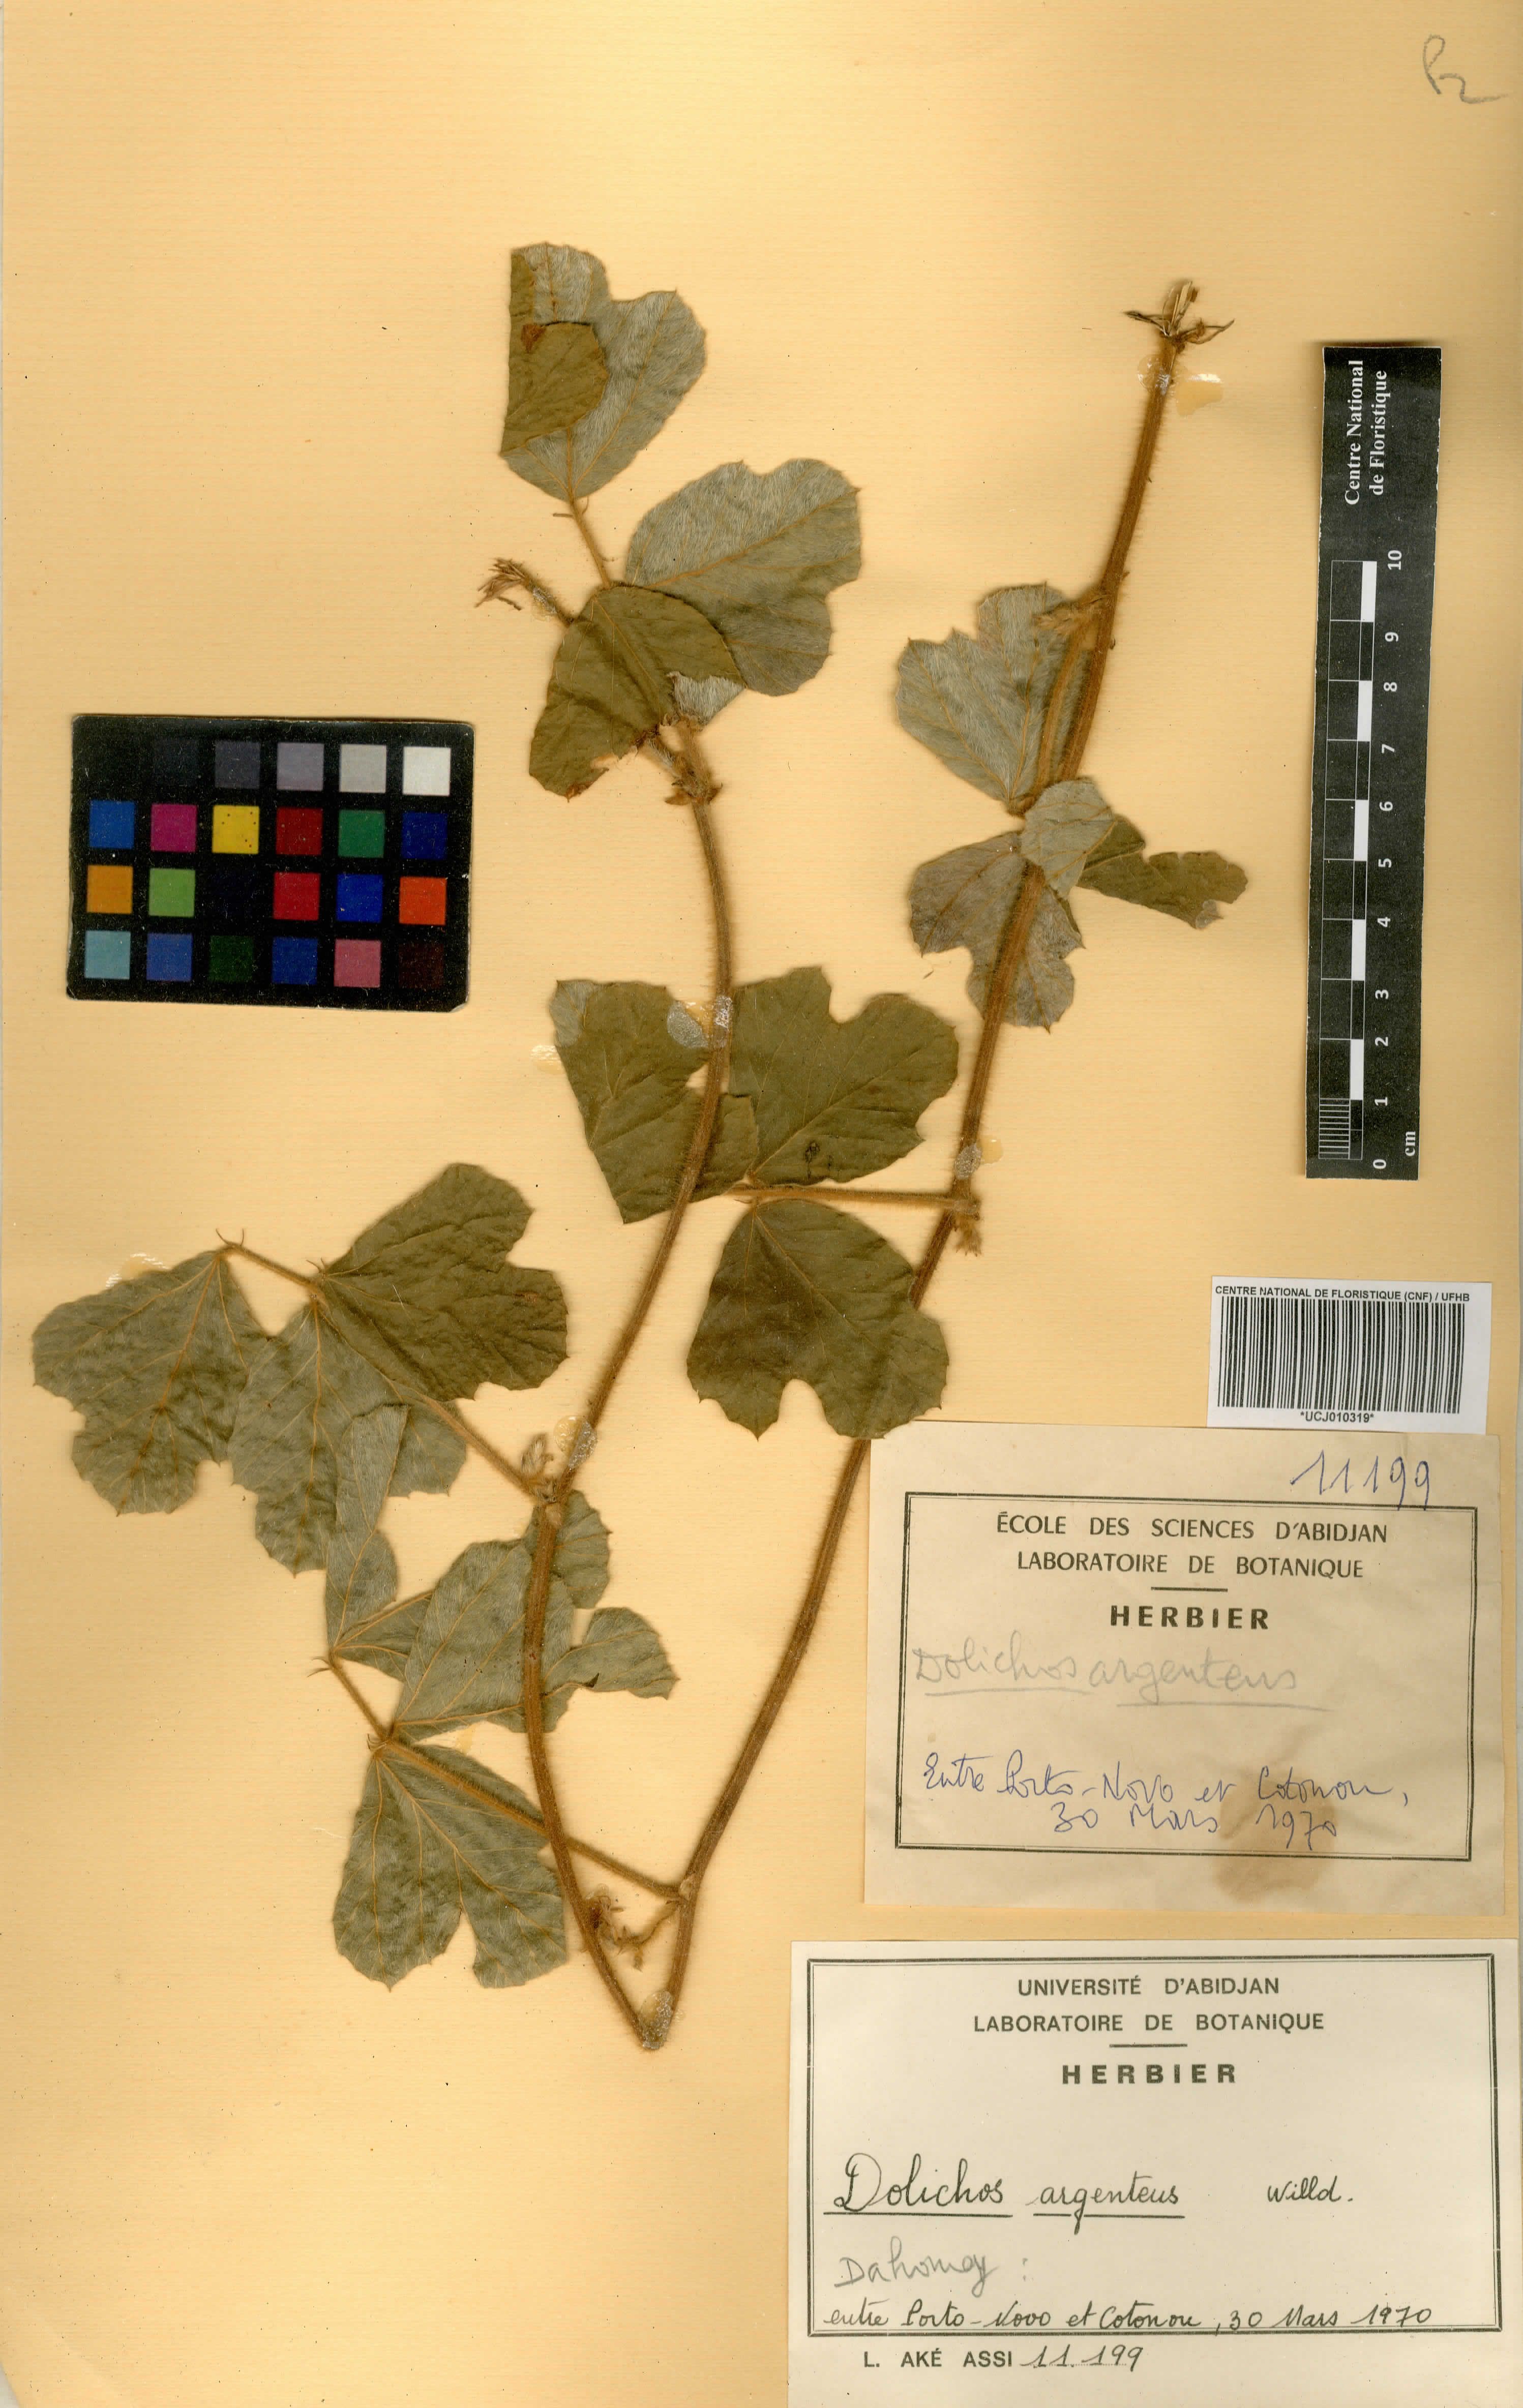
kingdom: Plantae
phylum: Tracheophyta
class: Magnoliopsida
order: Fabales
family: Fabaceae
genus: Pseudovigna
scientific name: Pseudovigna argentea
